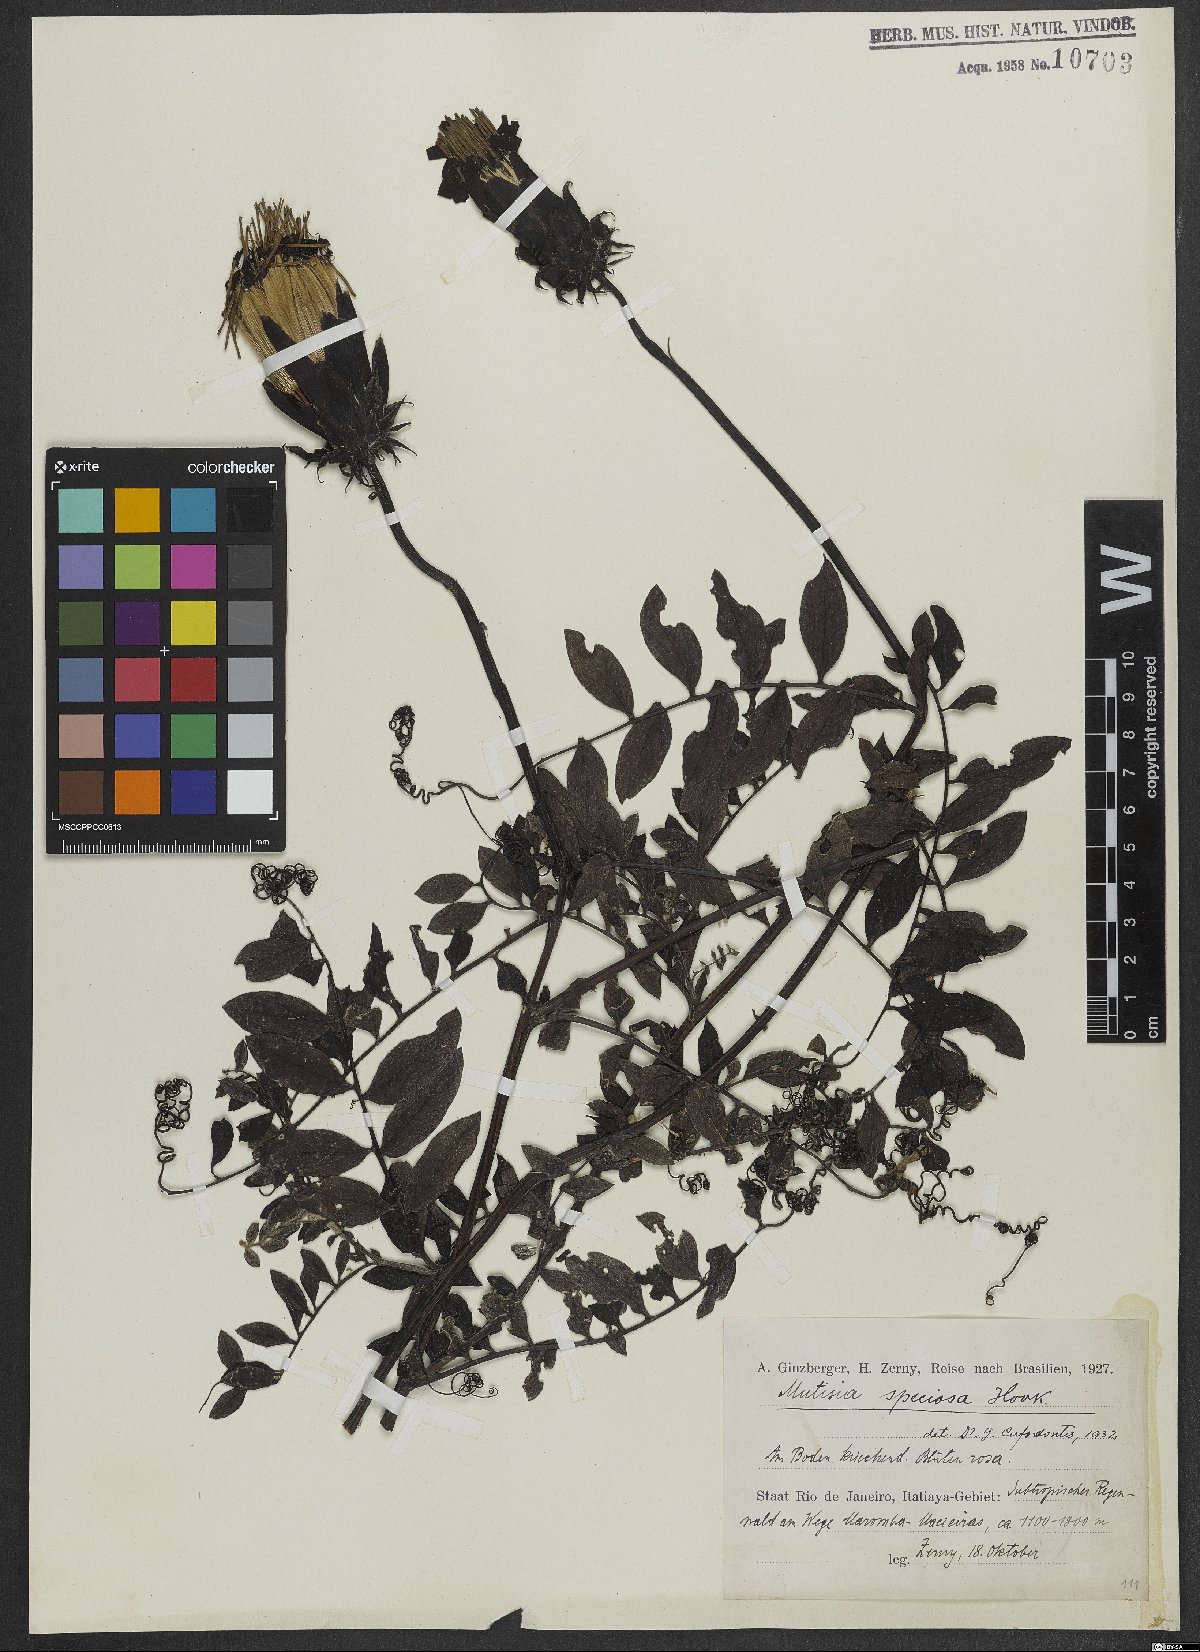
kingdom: Plantae
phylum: Tracheophyta
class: Magnoliopsida
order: Asterales
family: Asteraceae
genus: Mutisia
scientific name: Mutisia speciosa
